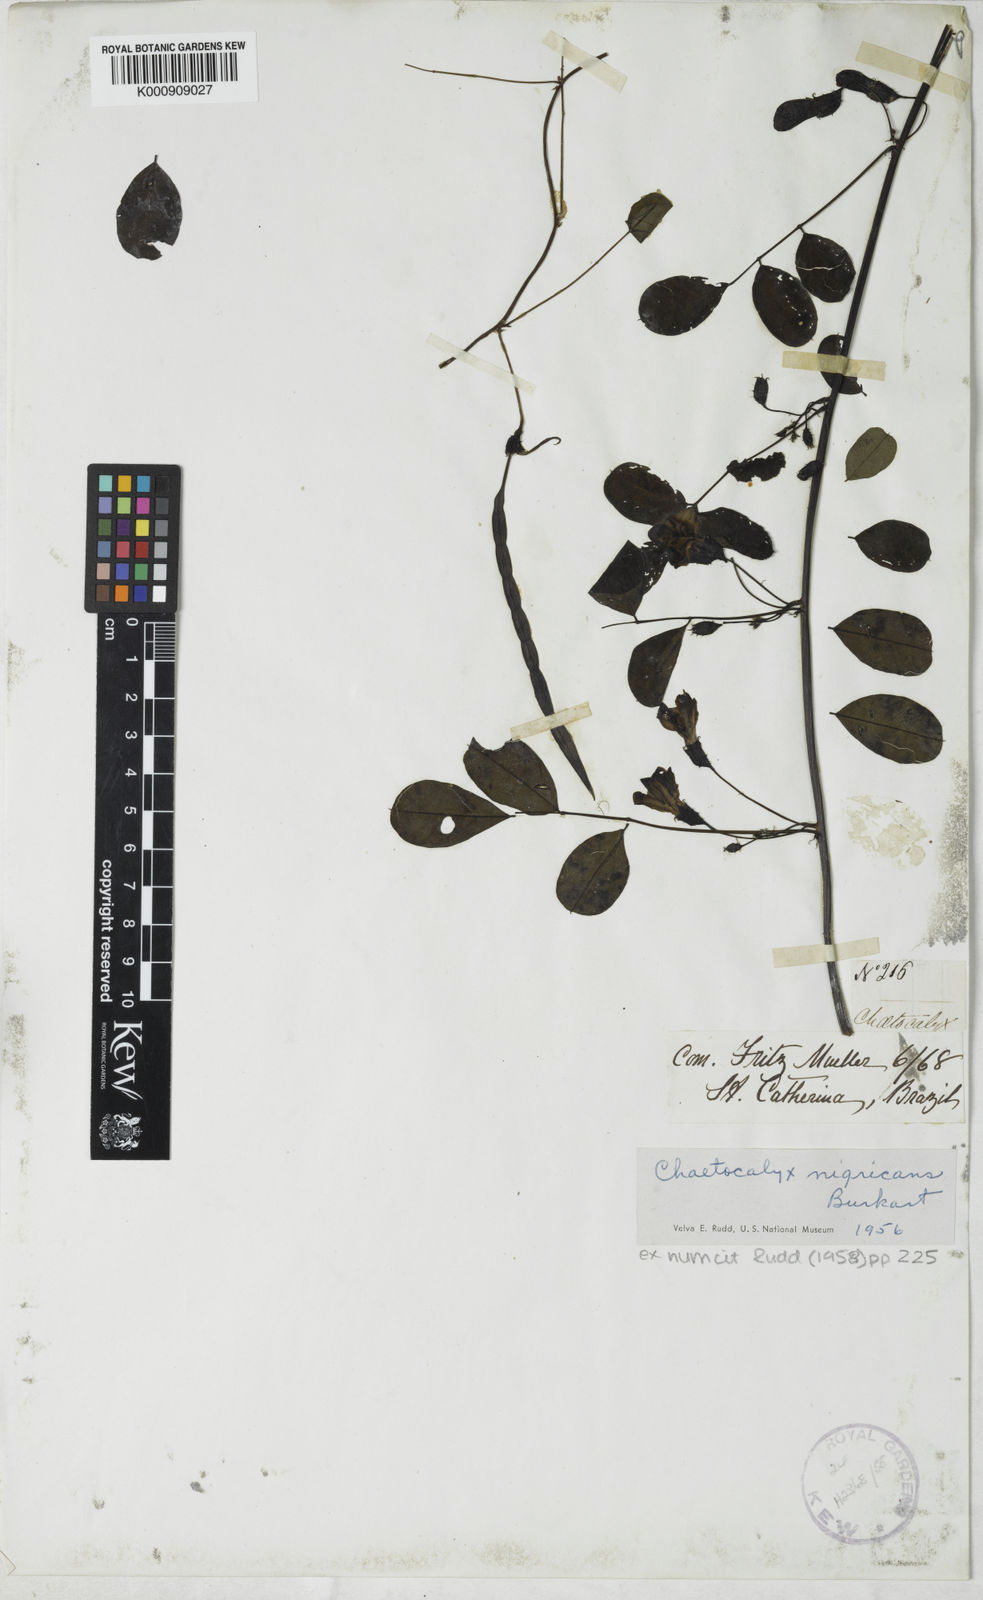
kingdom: Plantae
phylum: Tracheophyta
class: Magnoliopsida
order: Fabales
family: Fabaceae
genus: Nissolia
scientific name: Nissolia nigricans
